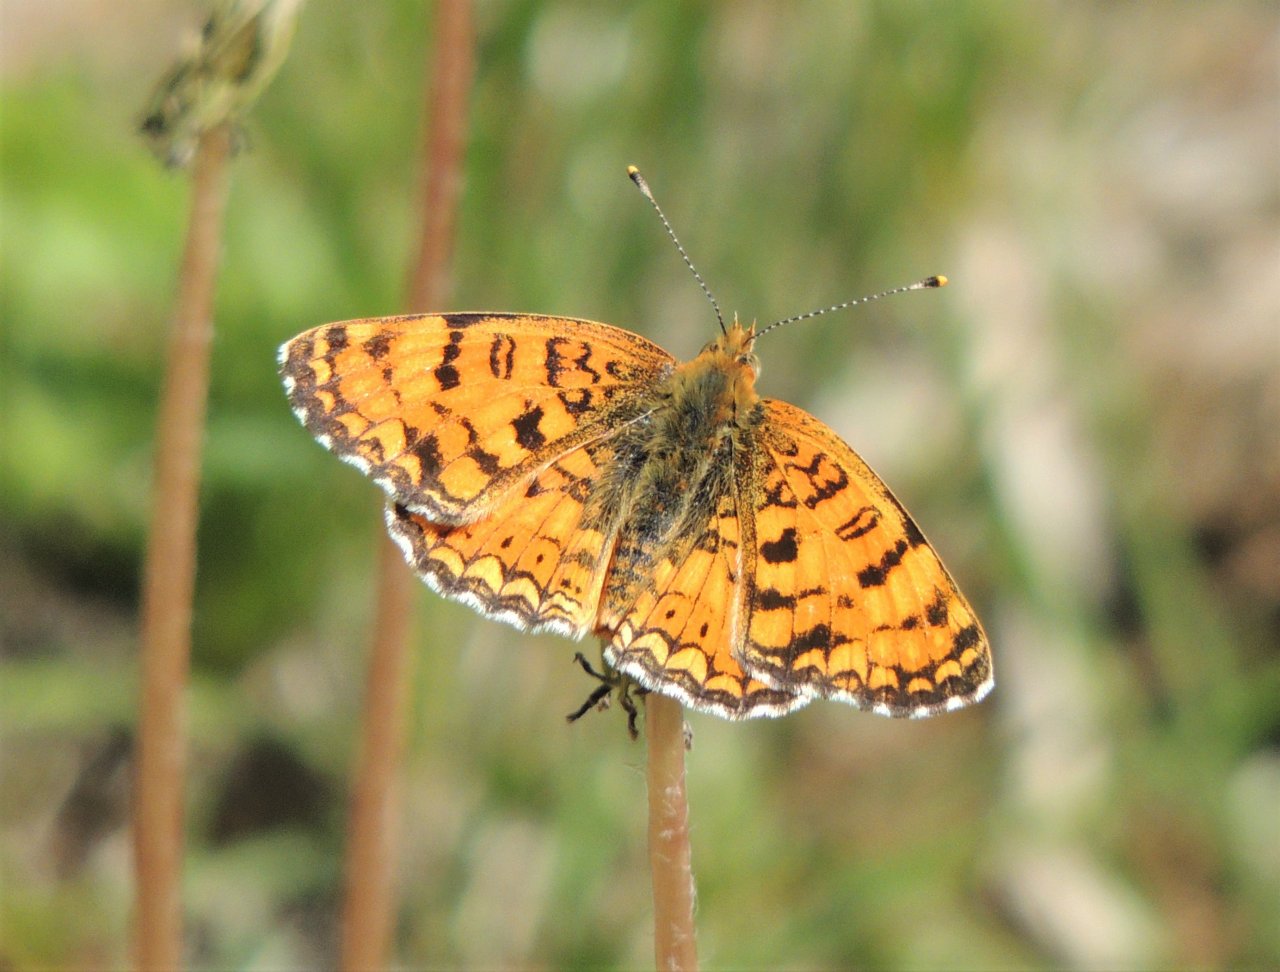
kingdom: Animalia
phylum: Arthropoda
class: Insecta
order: Lepidoptera
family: Nymphalidae
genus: Phyciodes
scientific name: Phyciodes pallida
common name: Pale Crescent
